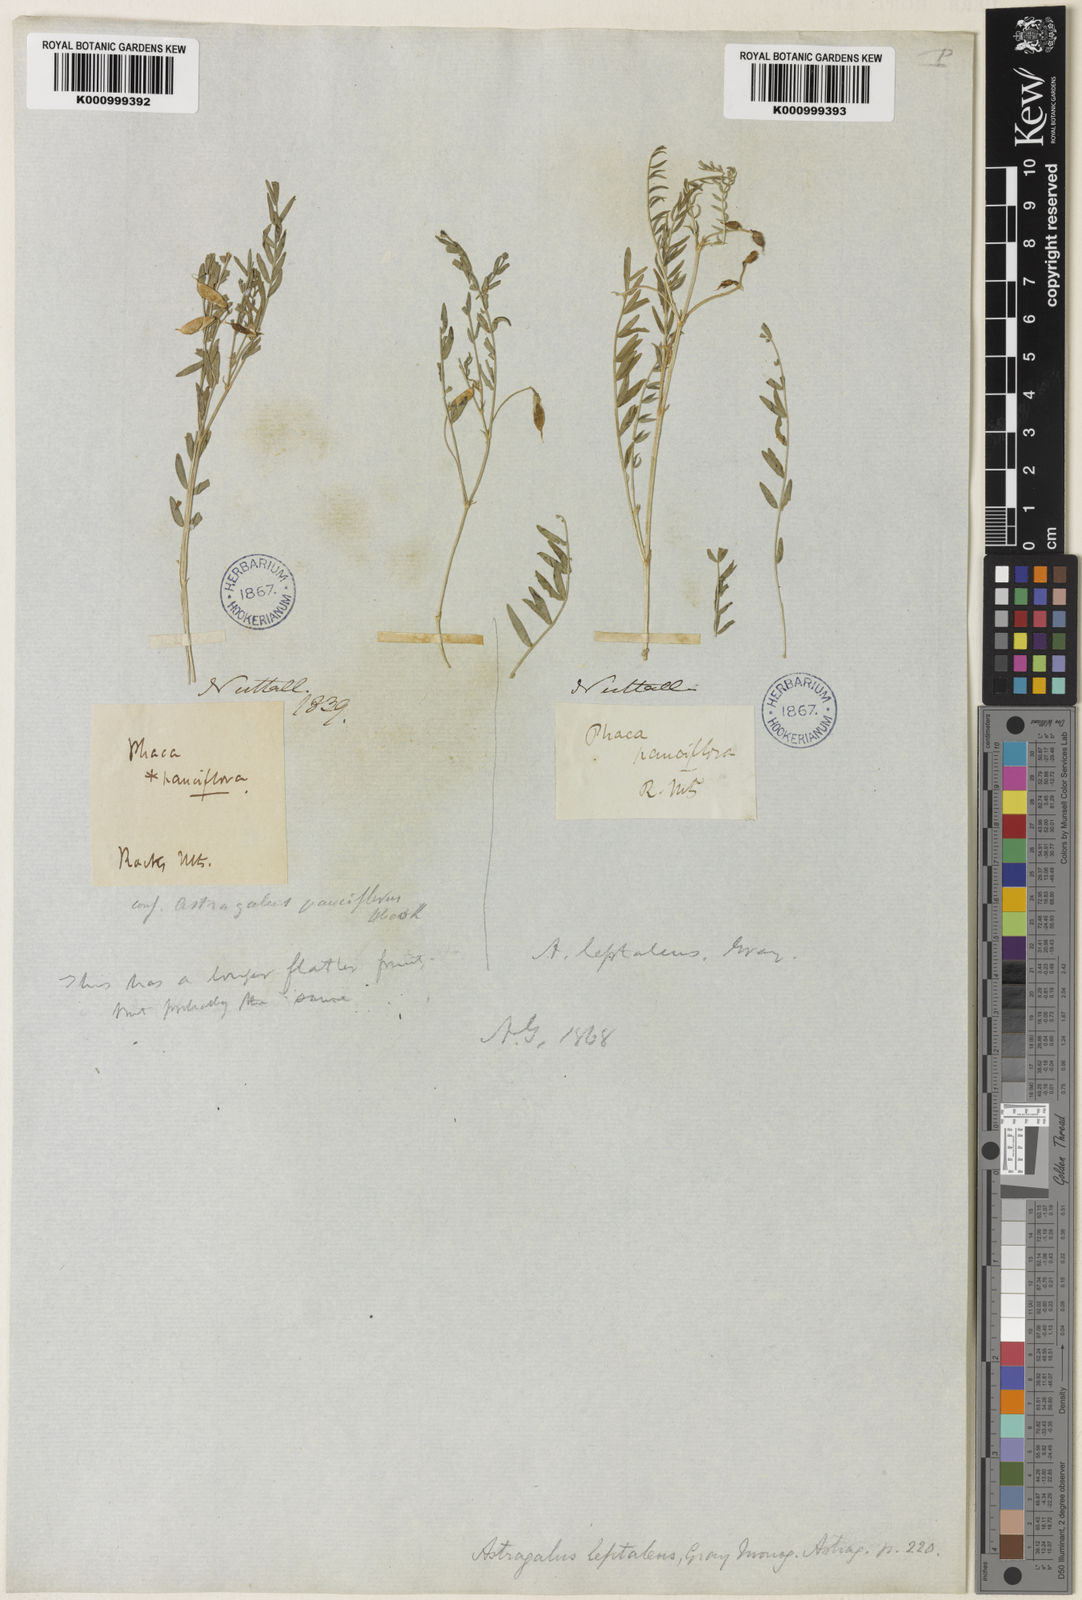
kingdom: Plantae
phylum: Tracheophyta
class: Magnoliopsida
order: Fabales
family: Fabaceae
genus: Astragalus
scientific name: Astragalus leptaleus
